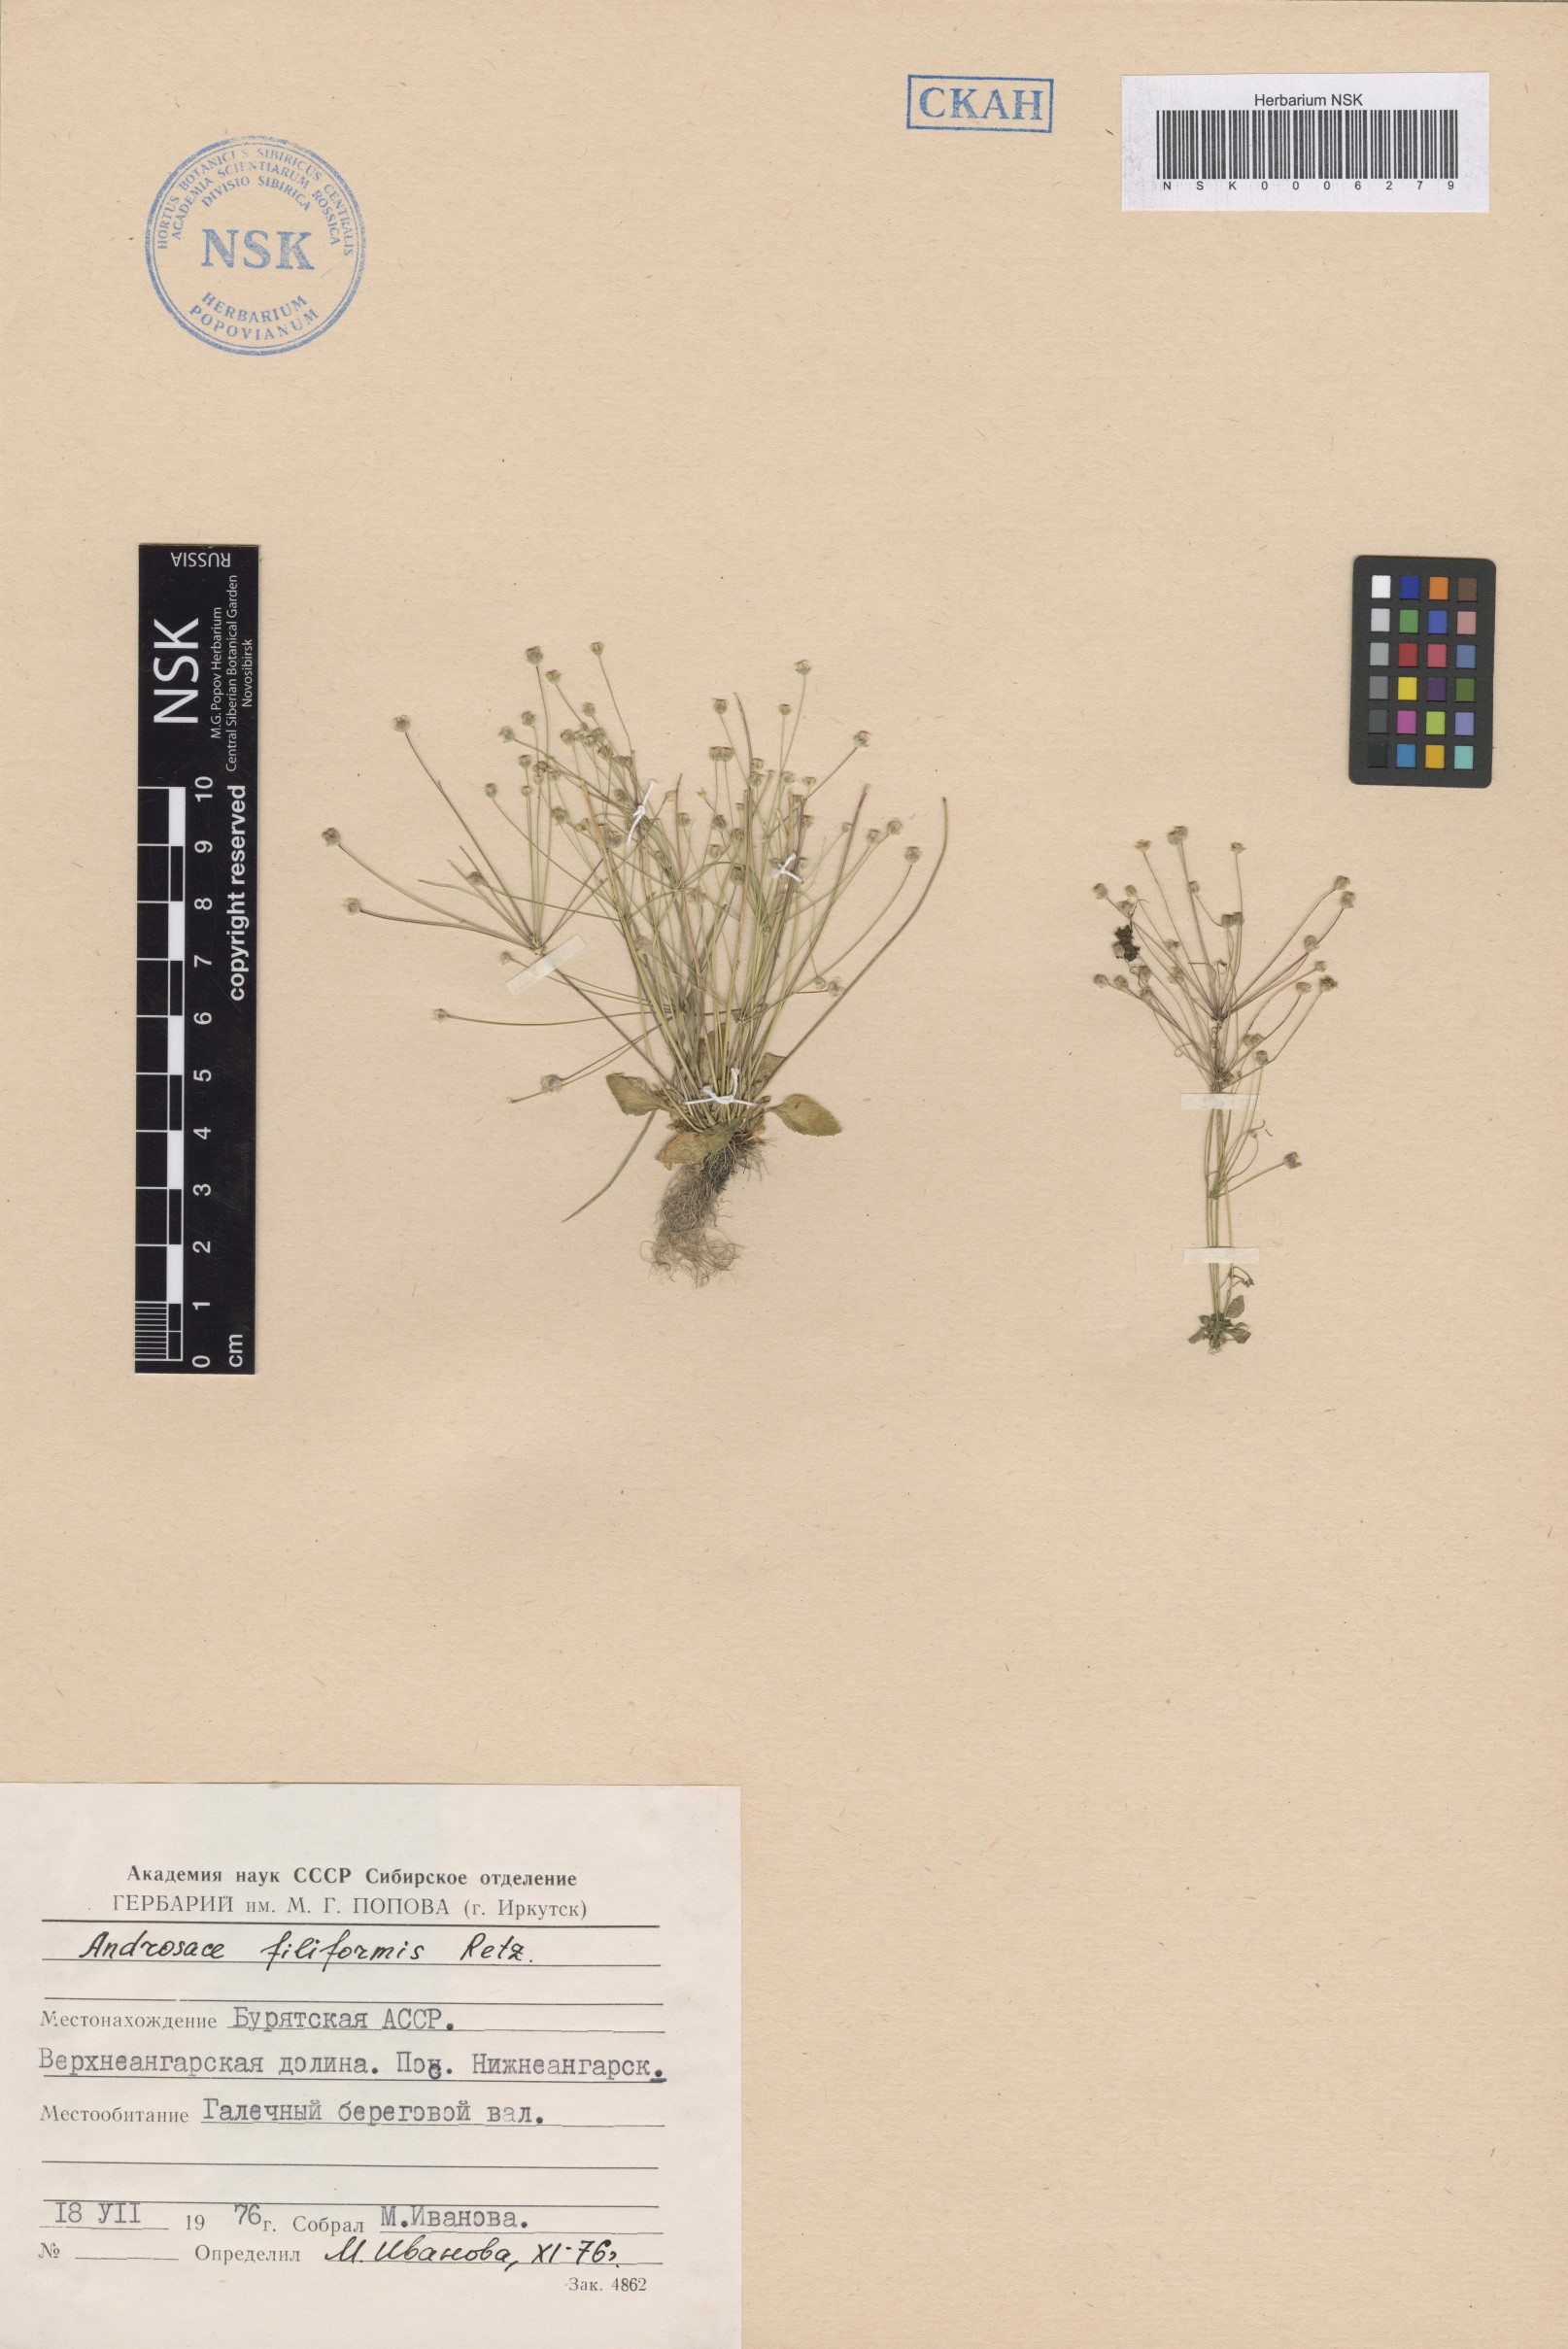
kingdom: Plantae
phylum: Tracheophyta
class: Magnoliopsida
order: Ericales
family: Primulaceae
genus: Androsace
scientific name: Androsace filiformis
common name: Filiform rock jasmine
